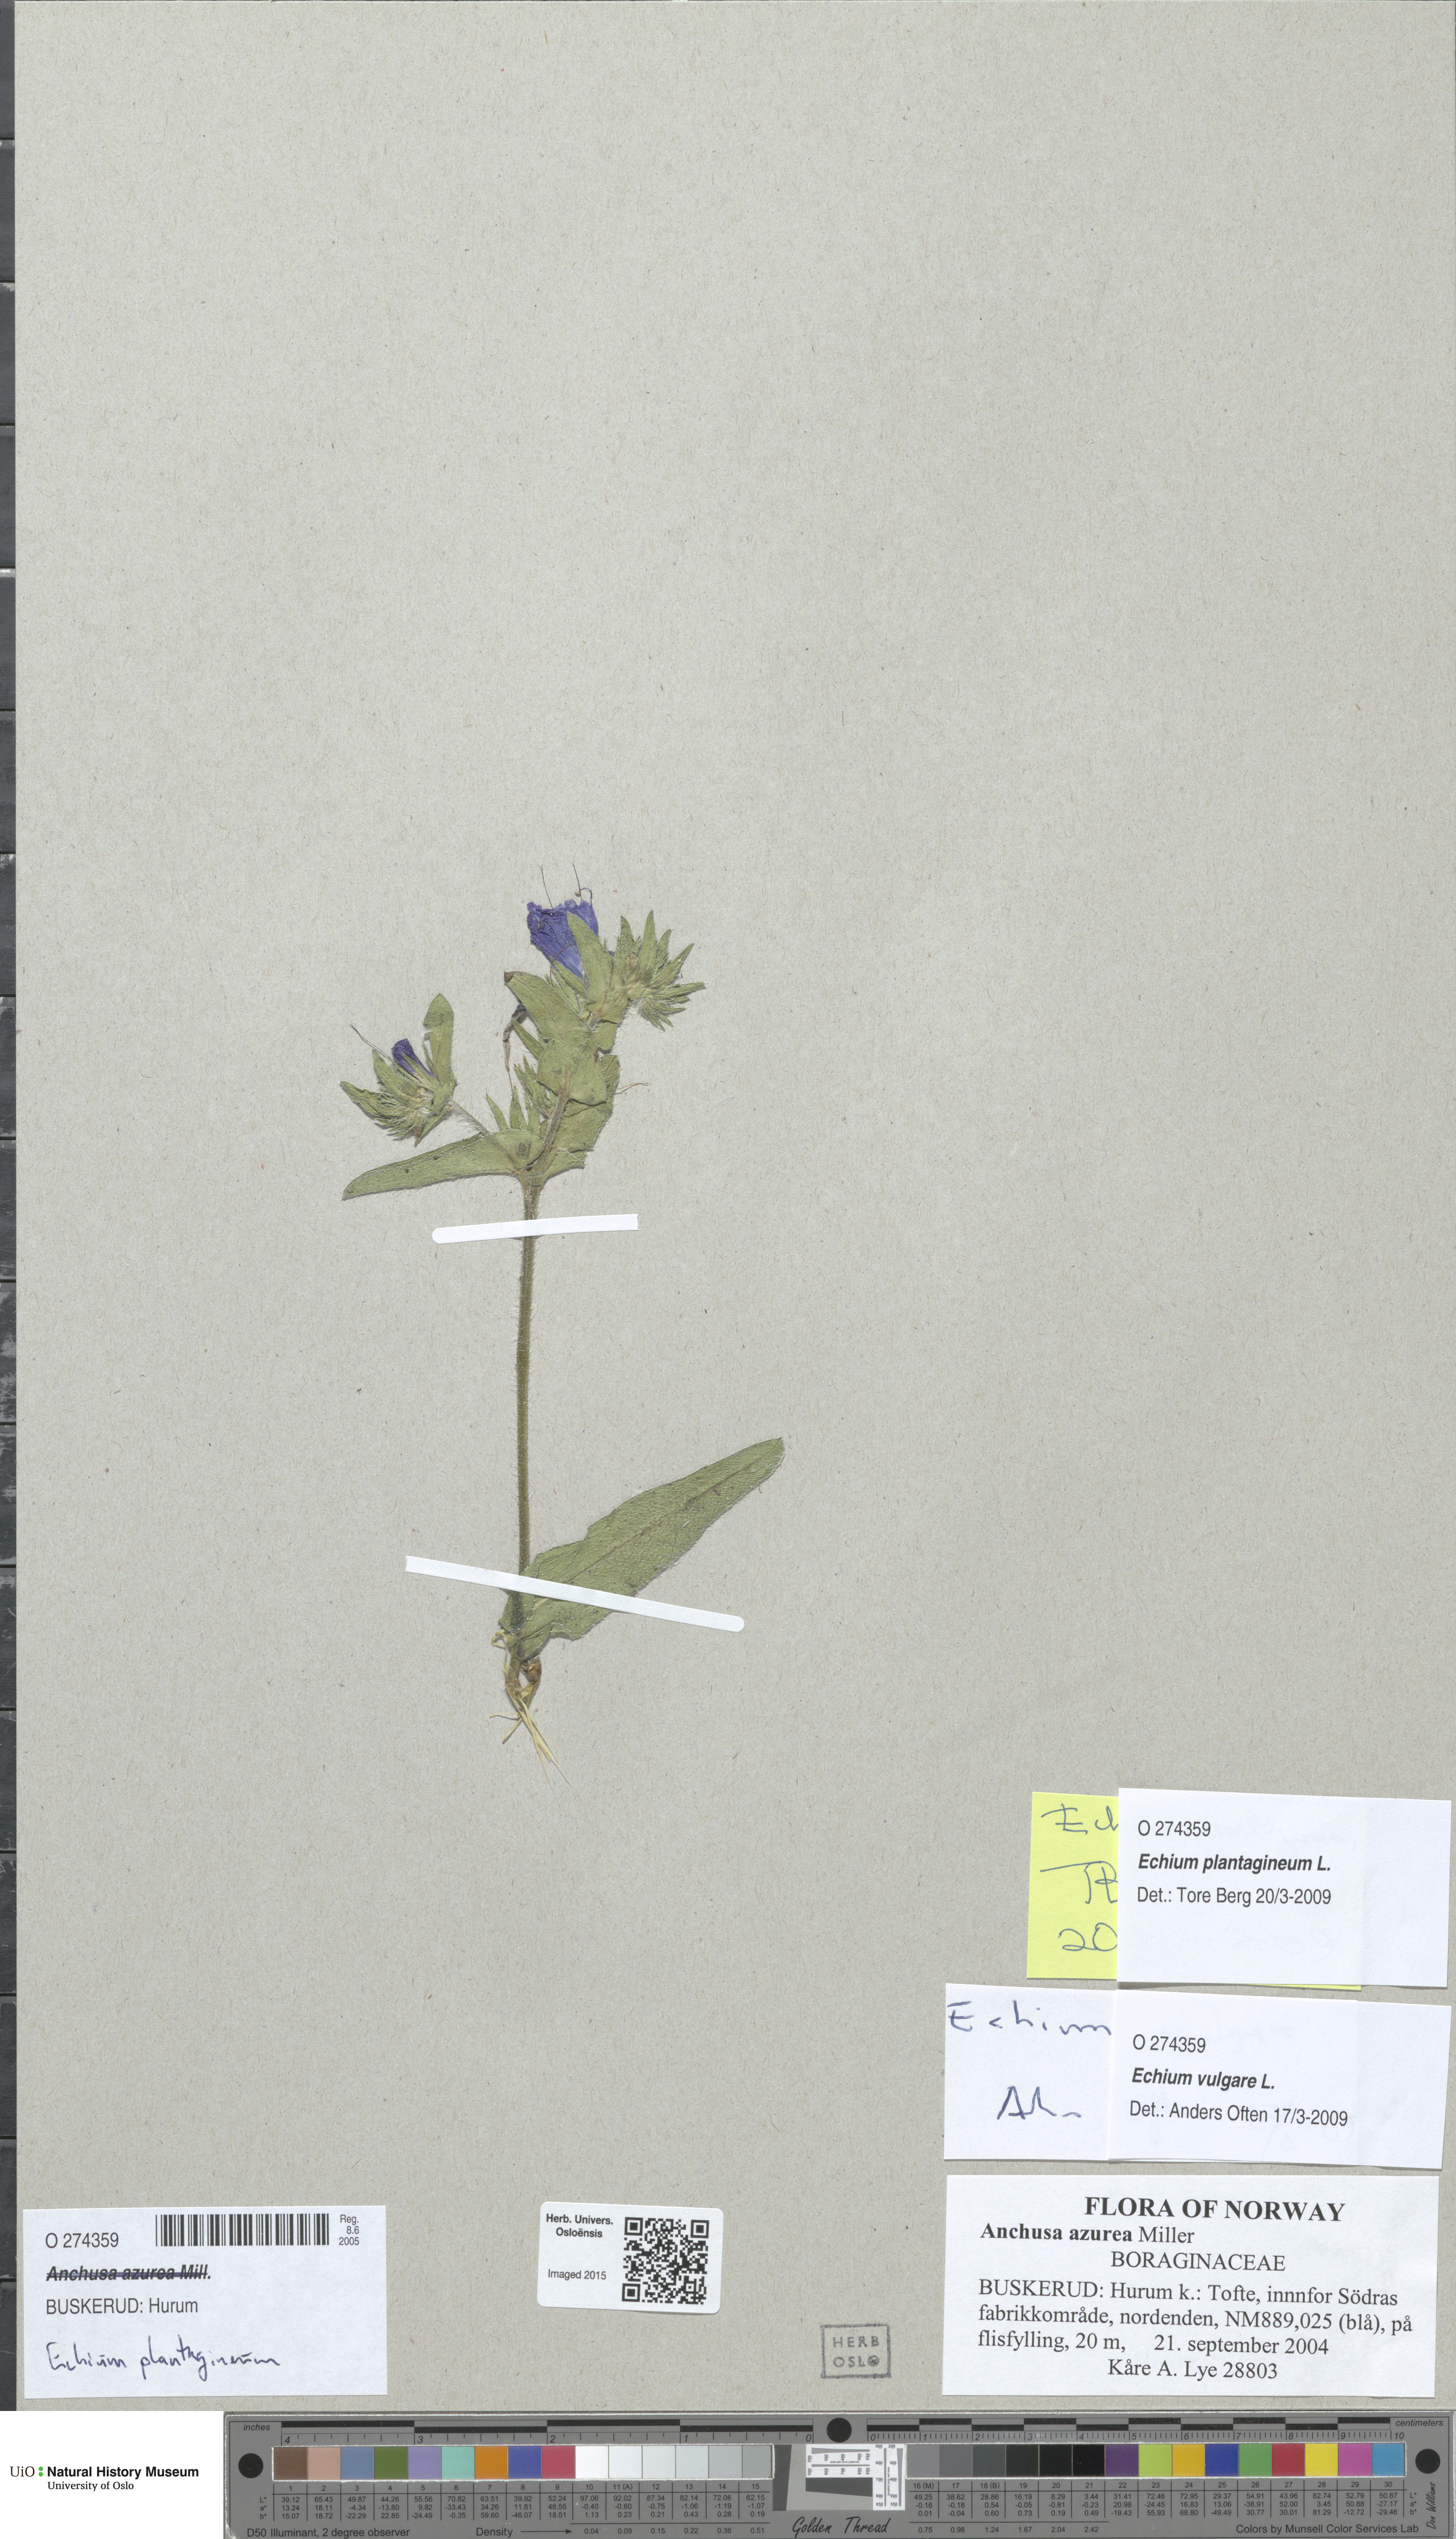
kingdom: Plantae
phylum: Tracheophyta
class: Magnoliopsida
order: Boraginales
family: Boraginaceae
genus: Echium
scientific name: Echium plantagineum
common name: Purple viper's-bugloss
